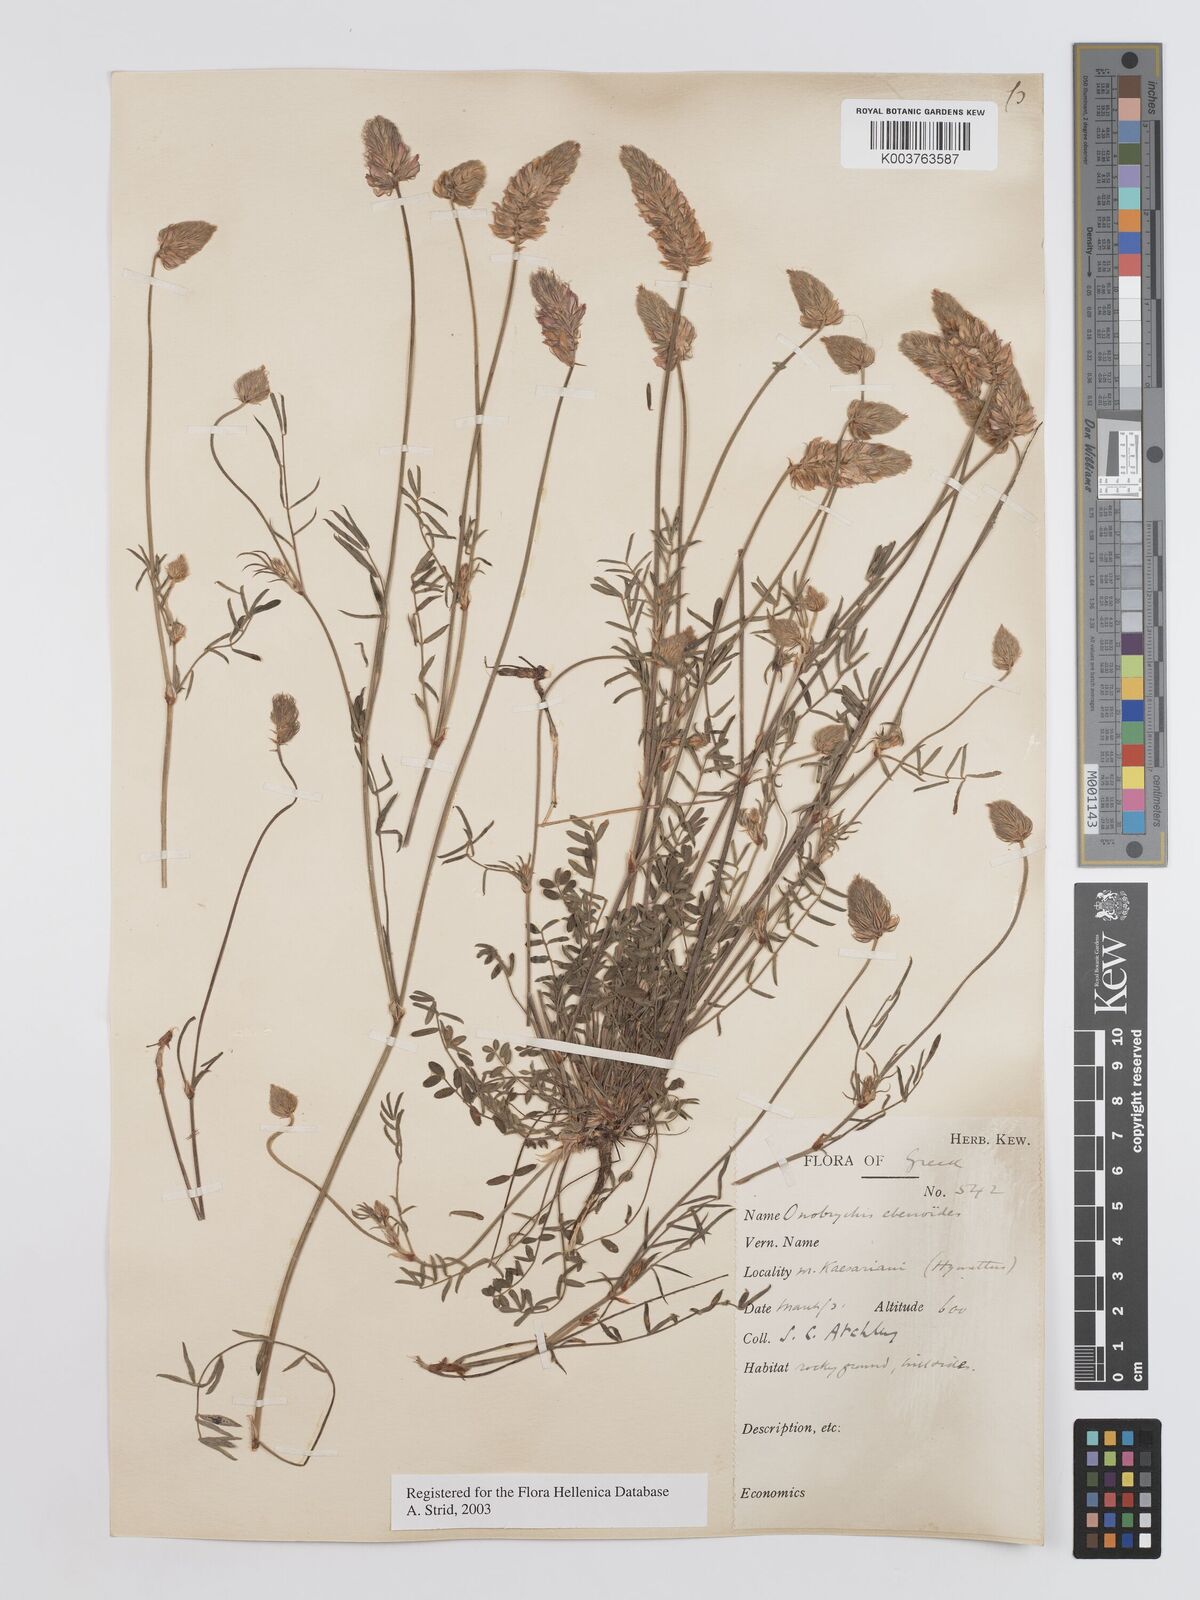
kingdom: Plantae
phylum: Tracheophyta
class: Magnoliopsida
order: Fabales
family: Fabaceae
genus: Onobrychis
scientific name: Onobrychis ebenoides
